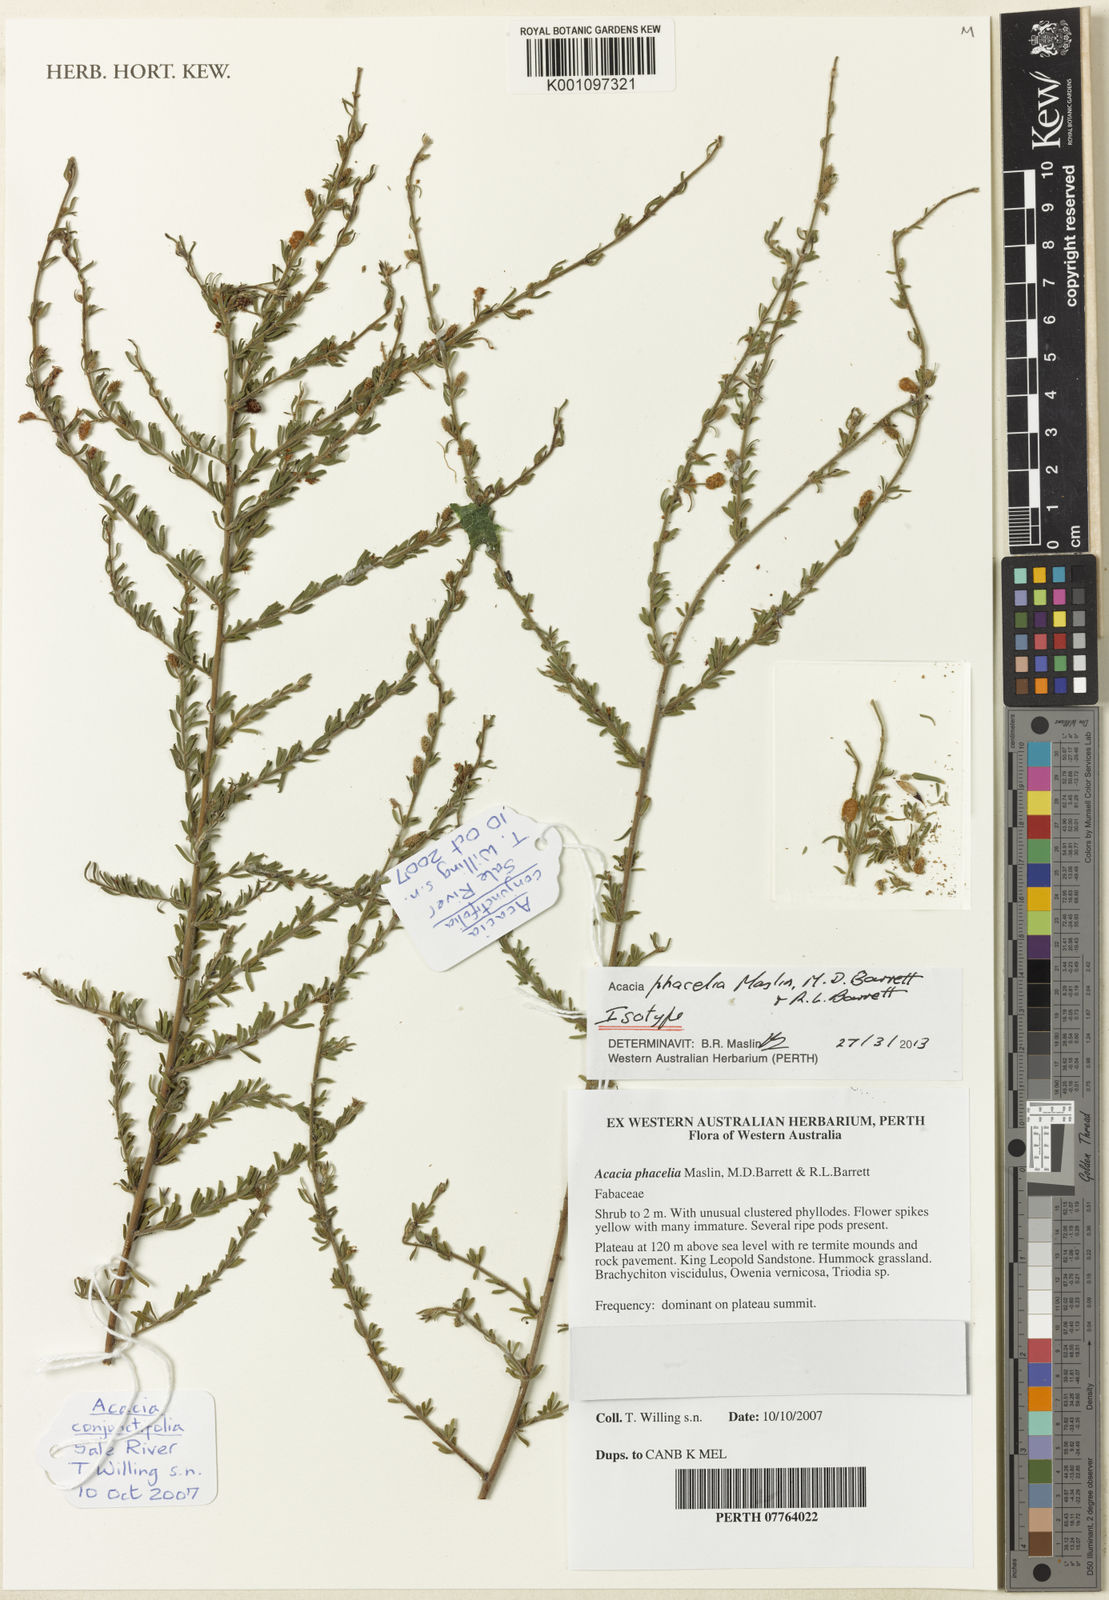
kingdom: Plantae
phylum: Tracheophyta
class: Magnoliopsida
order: Fabales
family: Fabaceae
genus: Acacia
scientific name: Acacia phacelia
